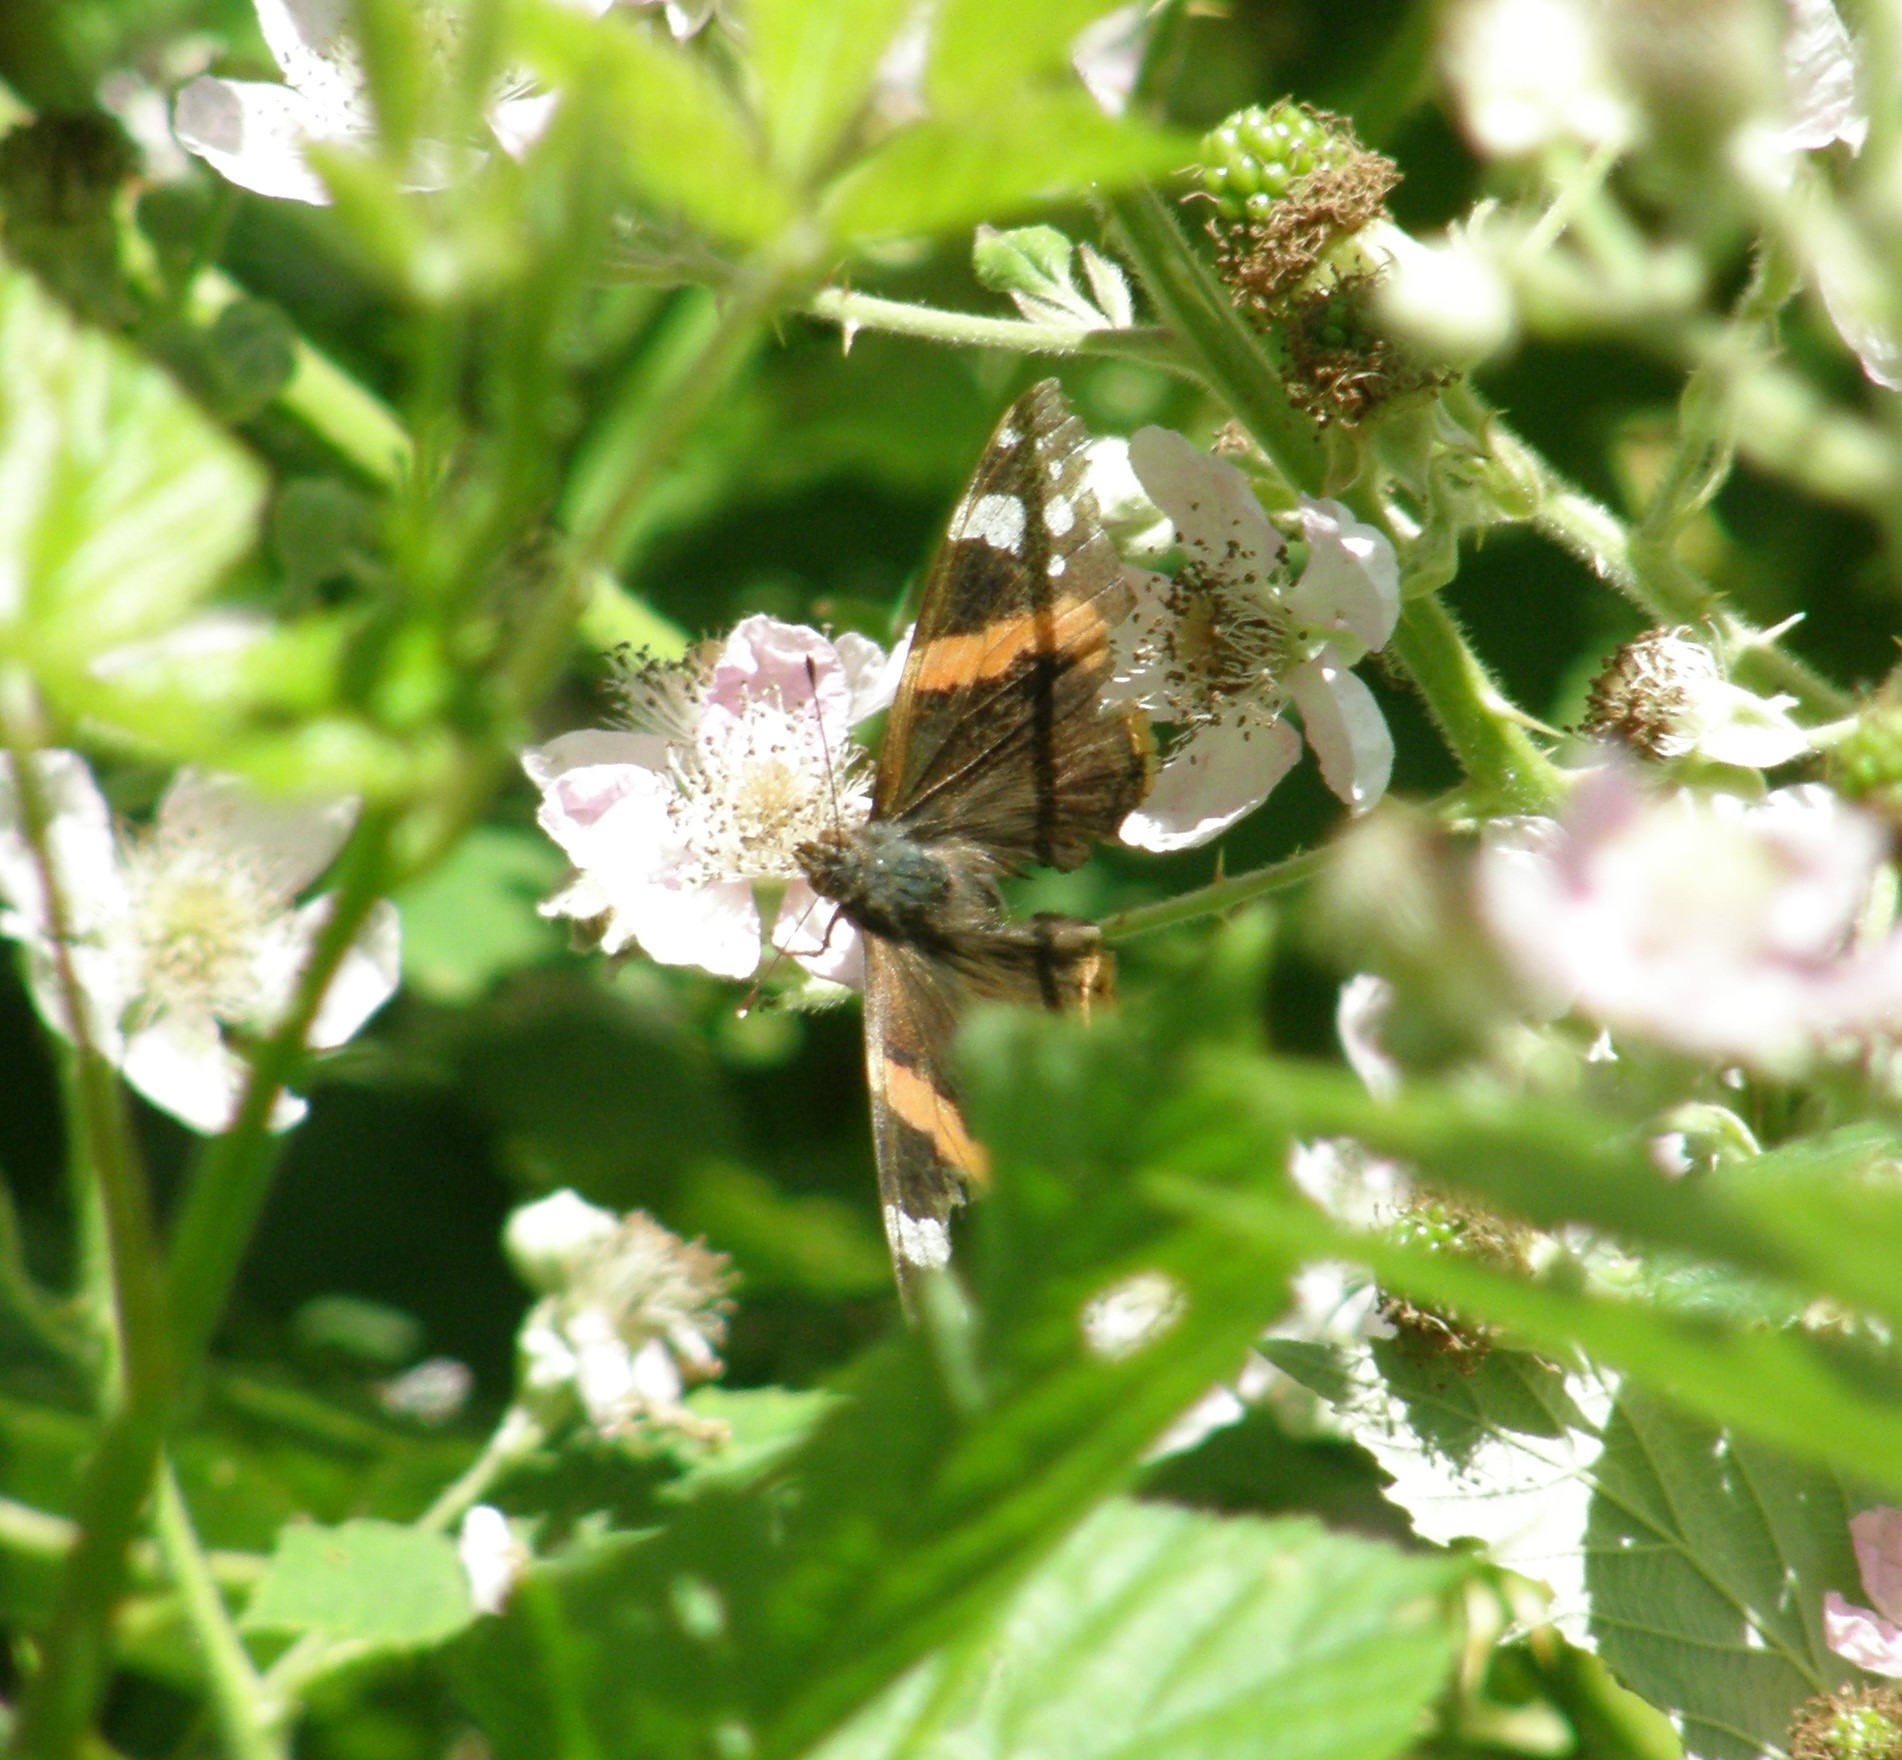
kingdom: Animalia
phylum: Arthropoda
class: Insecta
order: Lepidoptera
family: Nymphalidae
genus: Vanessa
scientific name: Vanessa atalanta
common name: Admiral
